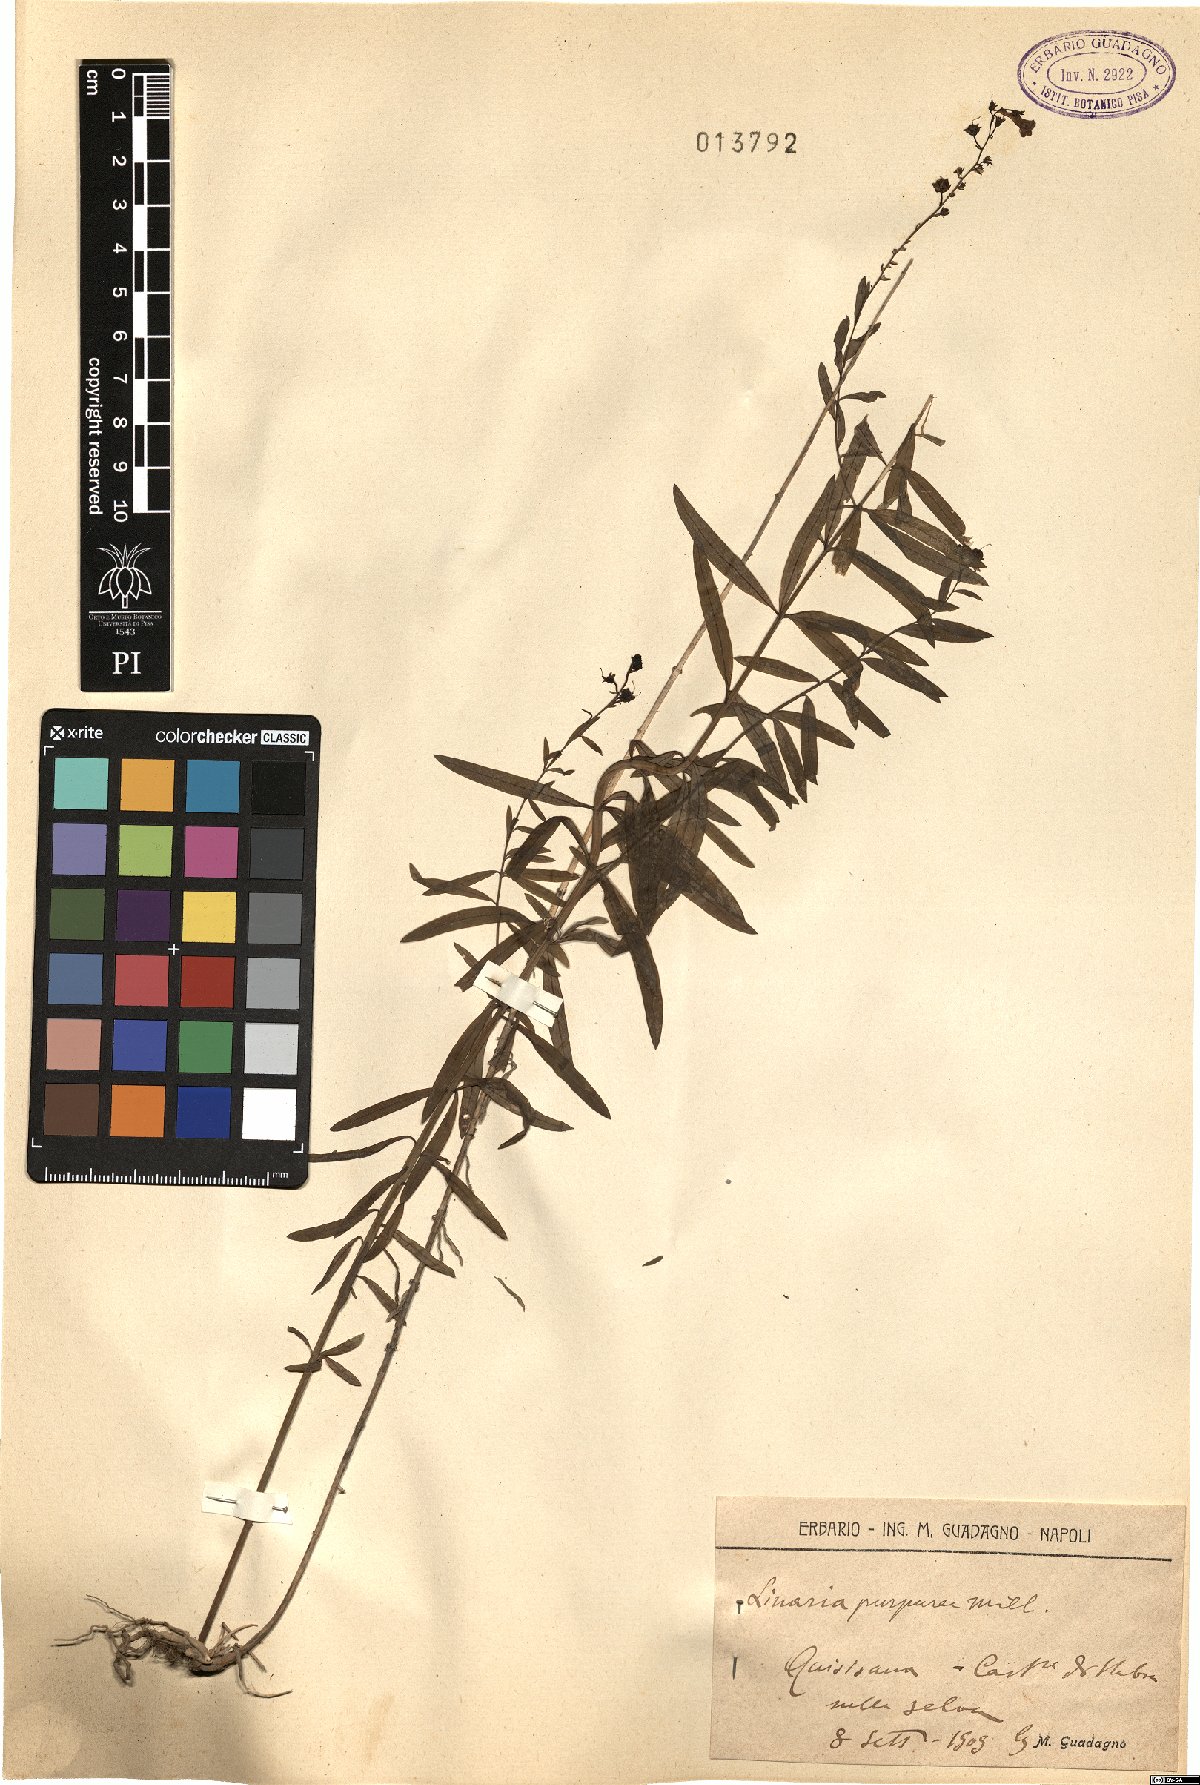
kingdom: Plantae
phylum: Tracheophyta
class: Magnoliopsida
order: Lamiales
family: Plantaginaceae
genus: Linaria
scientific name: Linaria purpurea
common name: Purple toadflax
